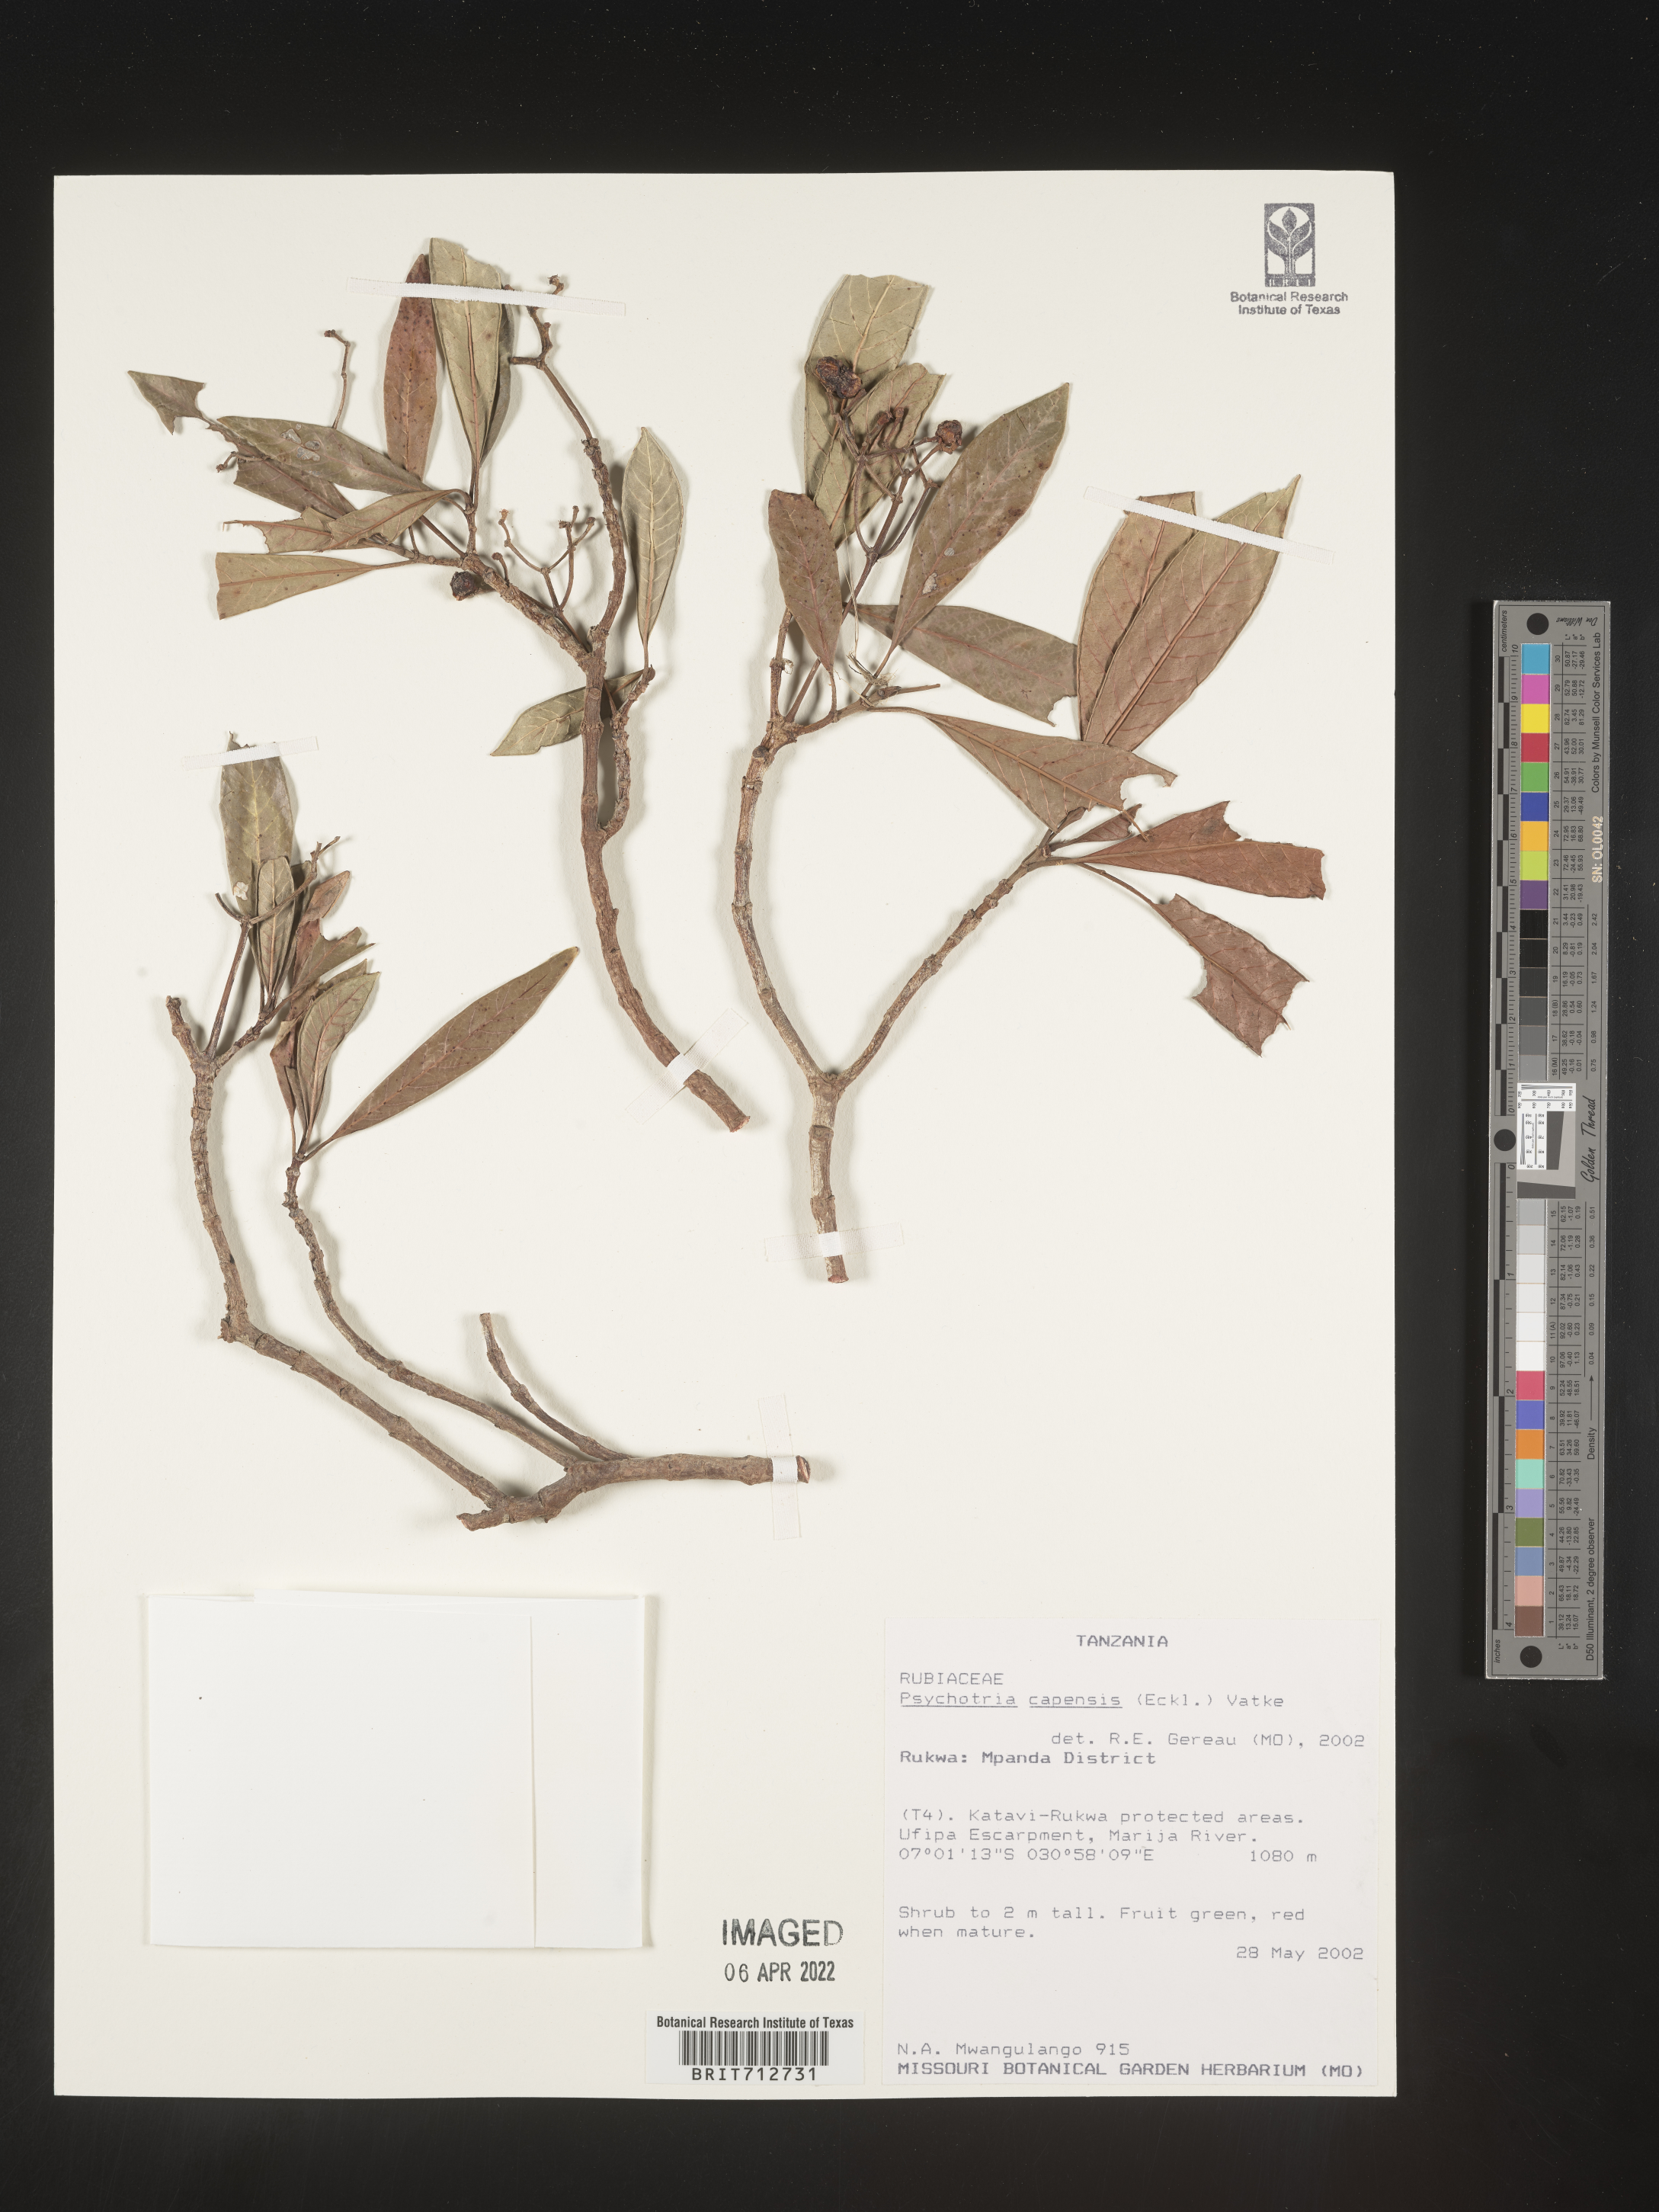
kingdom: Plantae
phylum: Tracheophyta
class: Magnoliopsida
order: Gentianales
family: Rubiaceae
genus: Psychotria
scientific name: Psychotria capensis
